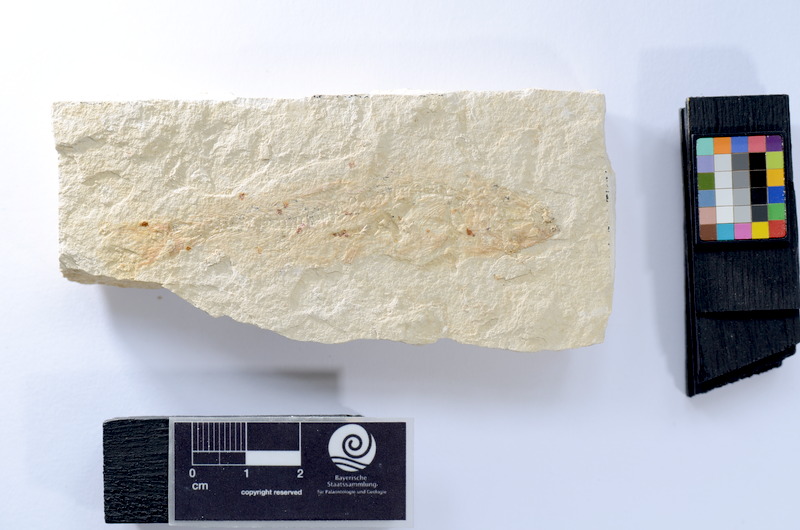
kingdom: Animalia
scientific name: Animalia
